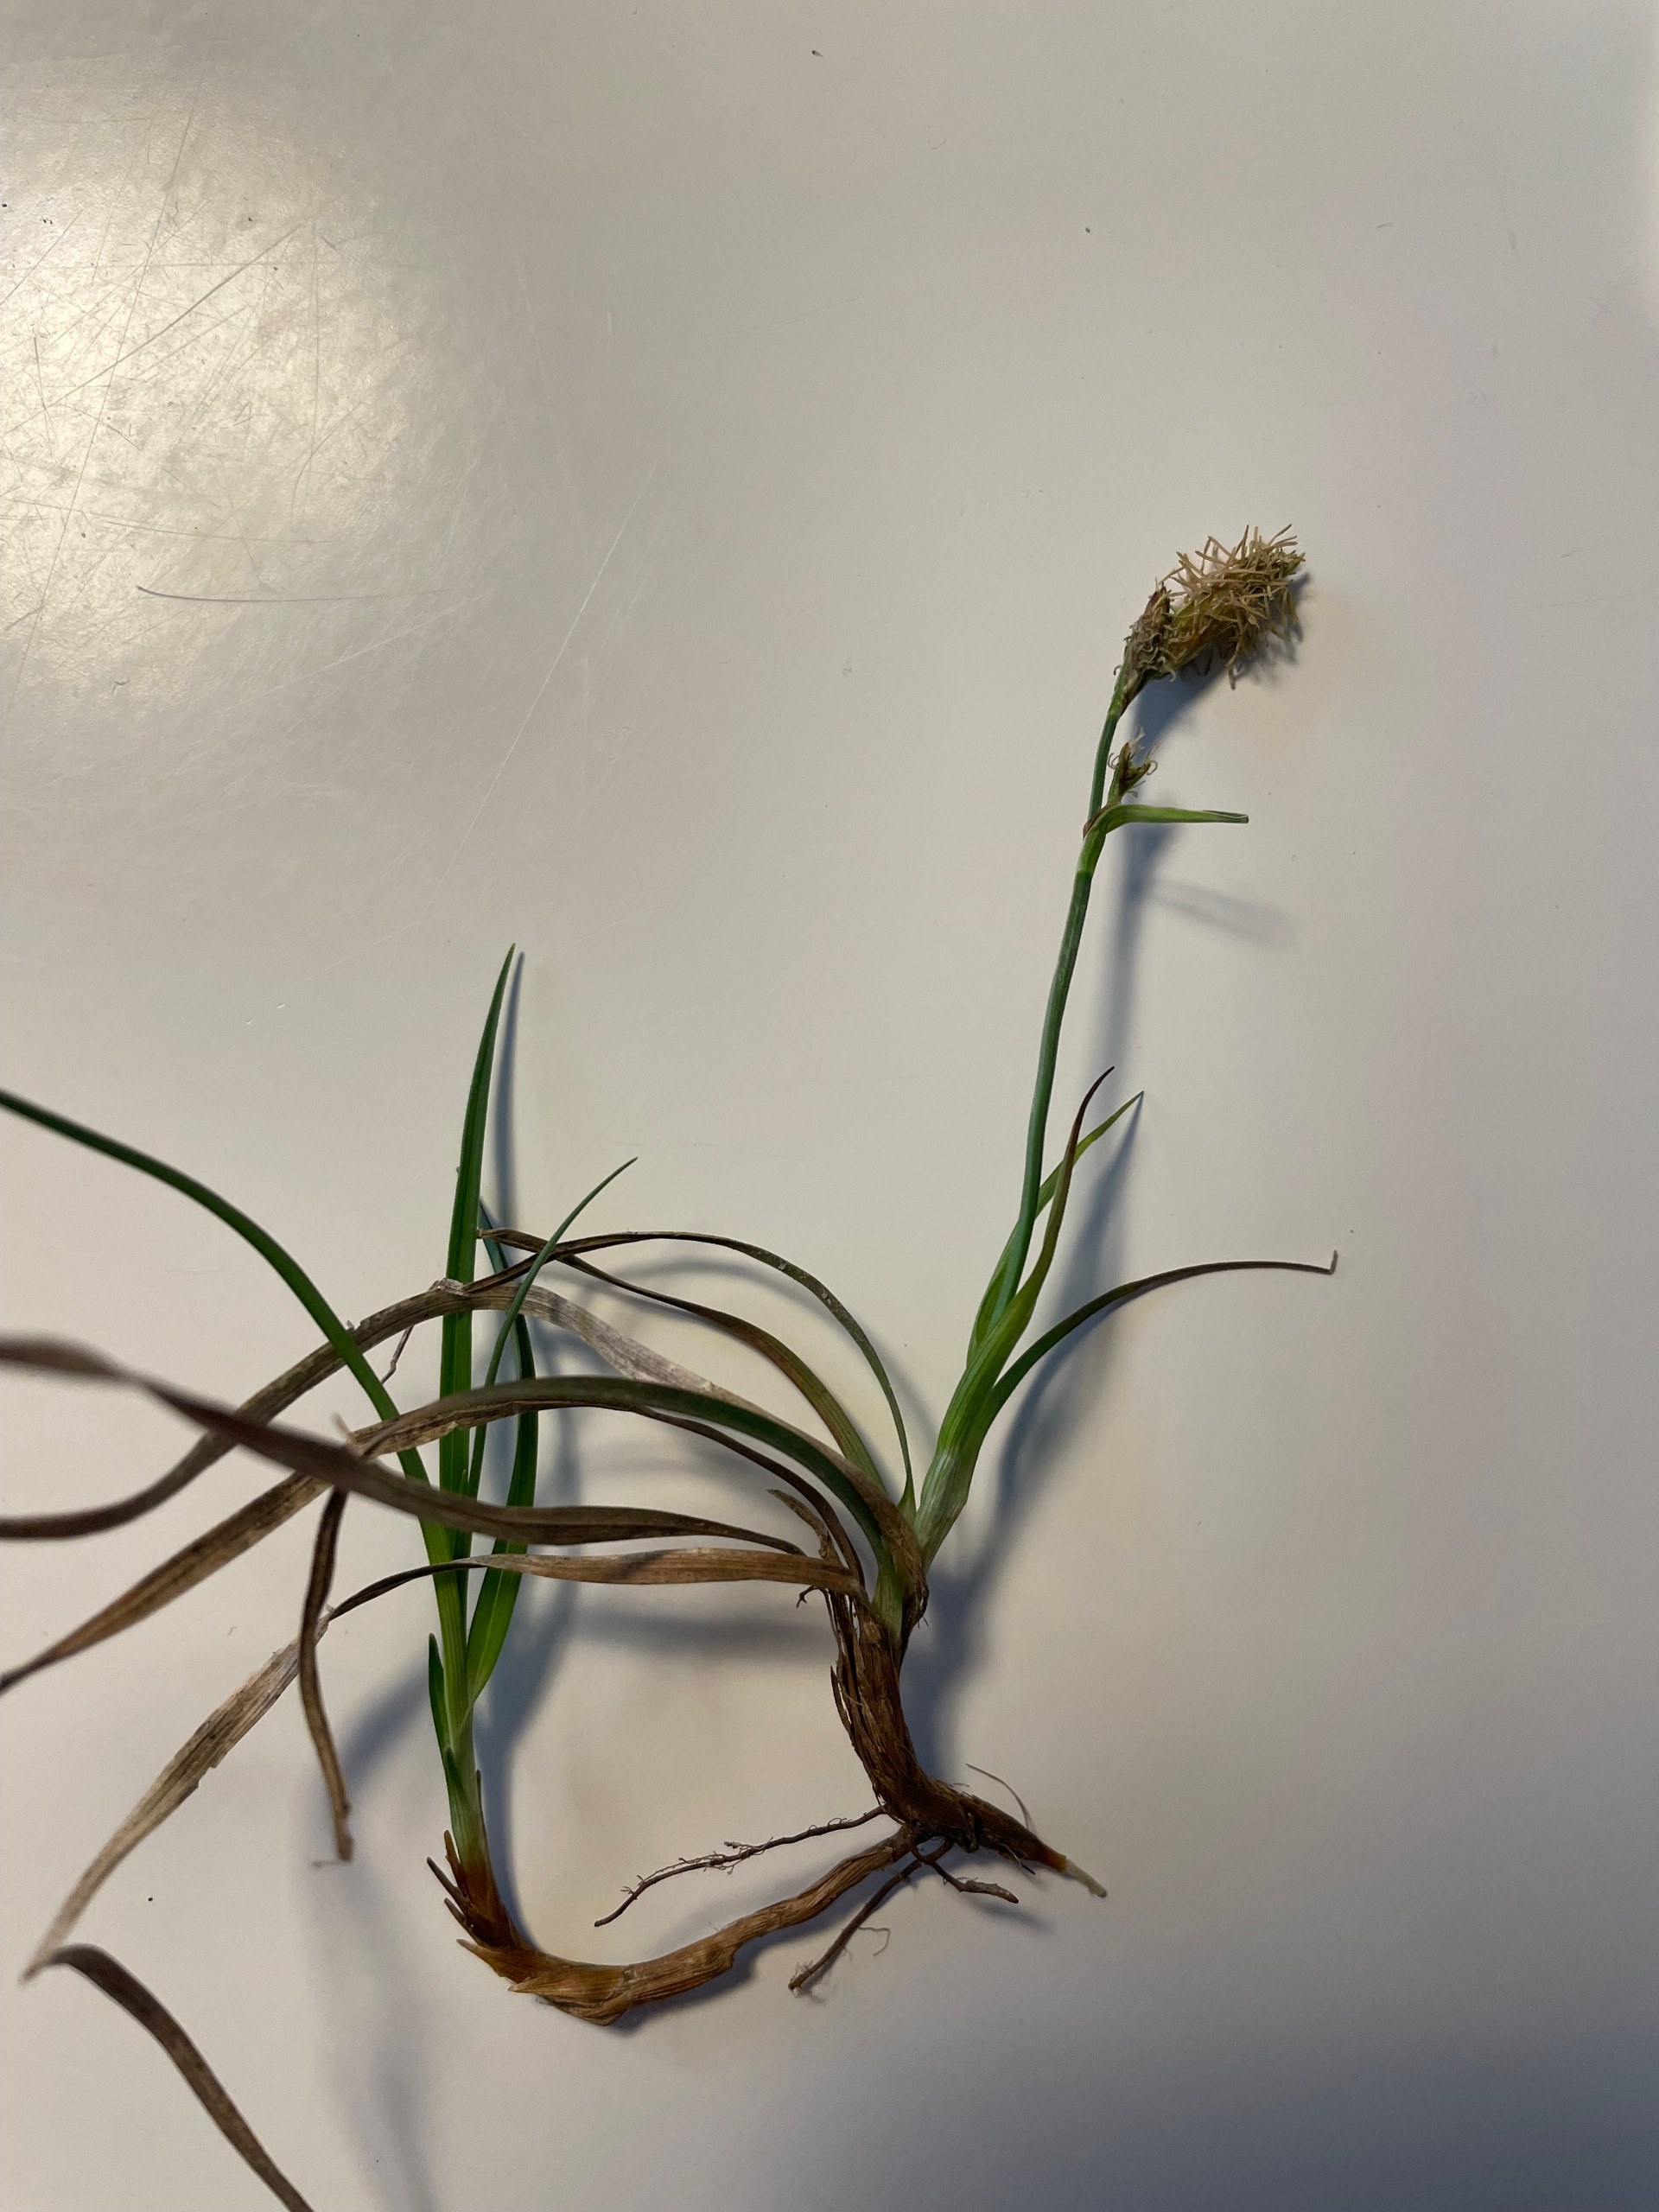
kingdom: Plantae
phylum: Tracheophyta
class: Liliopsida
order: Poales
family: Cyperaceae
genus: Carex
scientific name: Carex caryophyllea
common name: Vår-star
